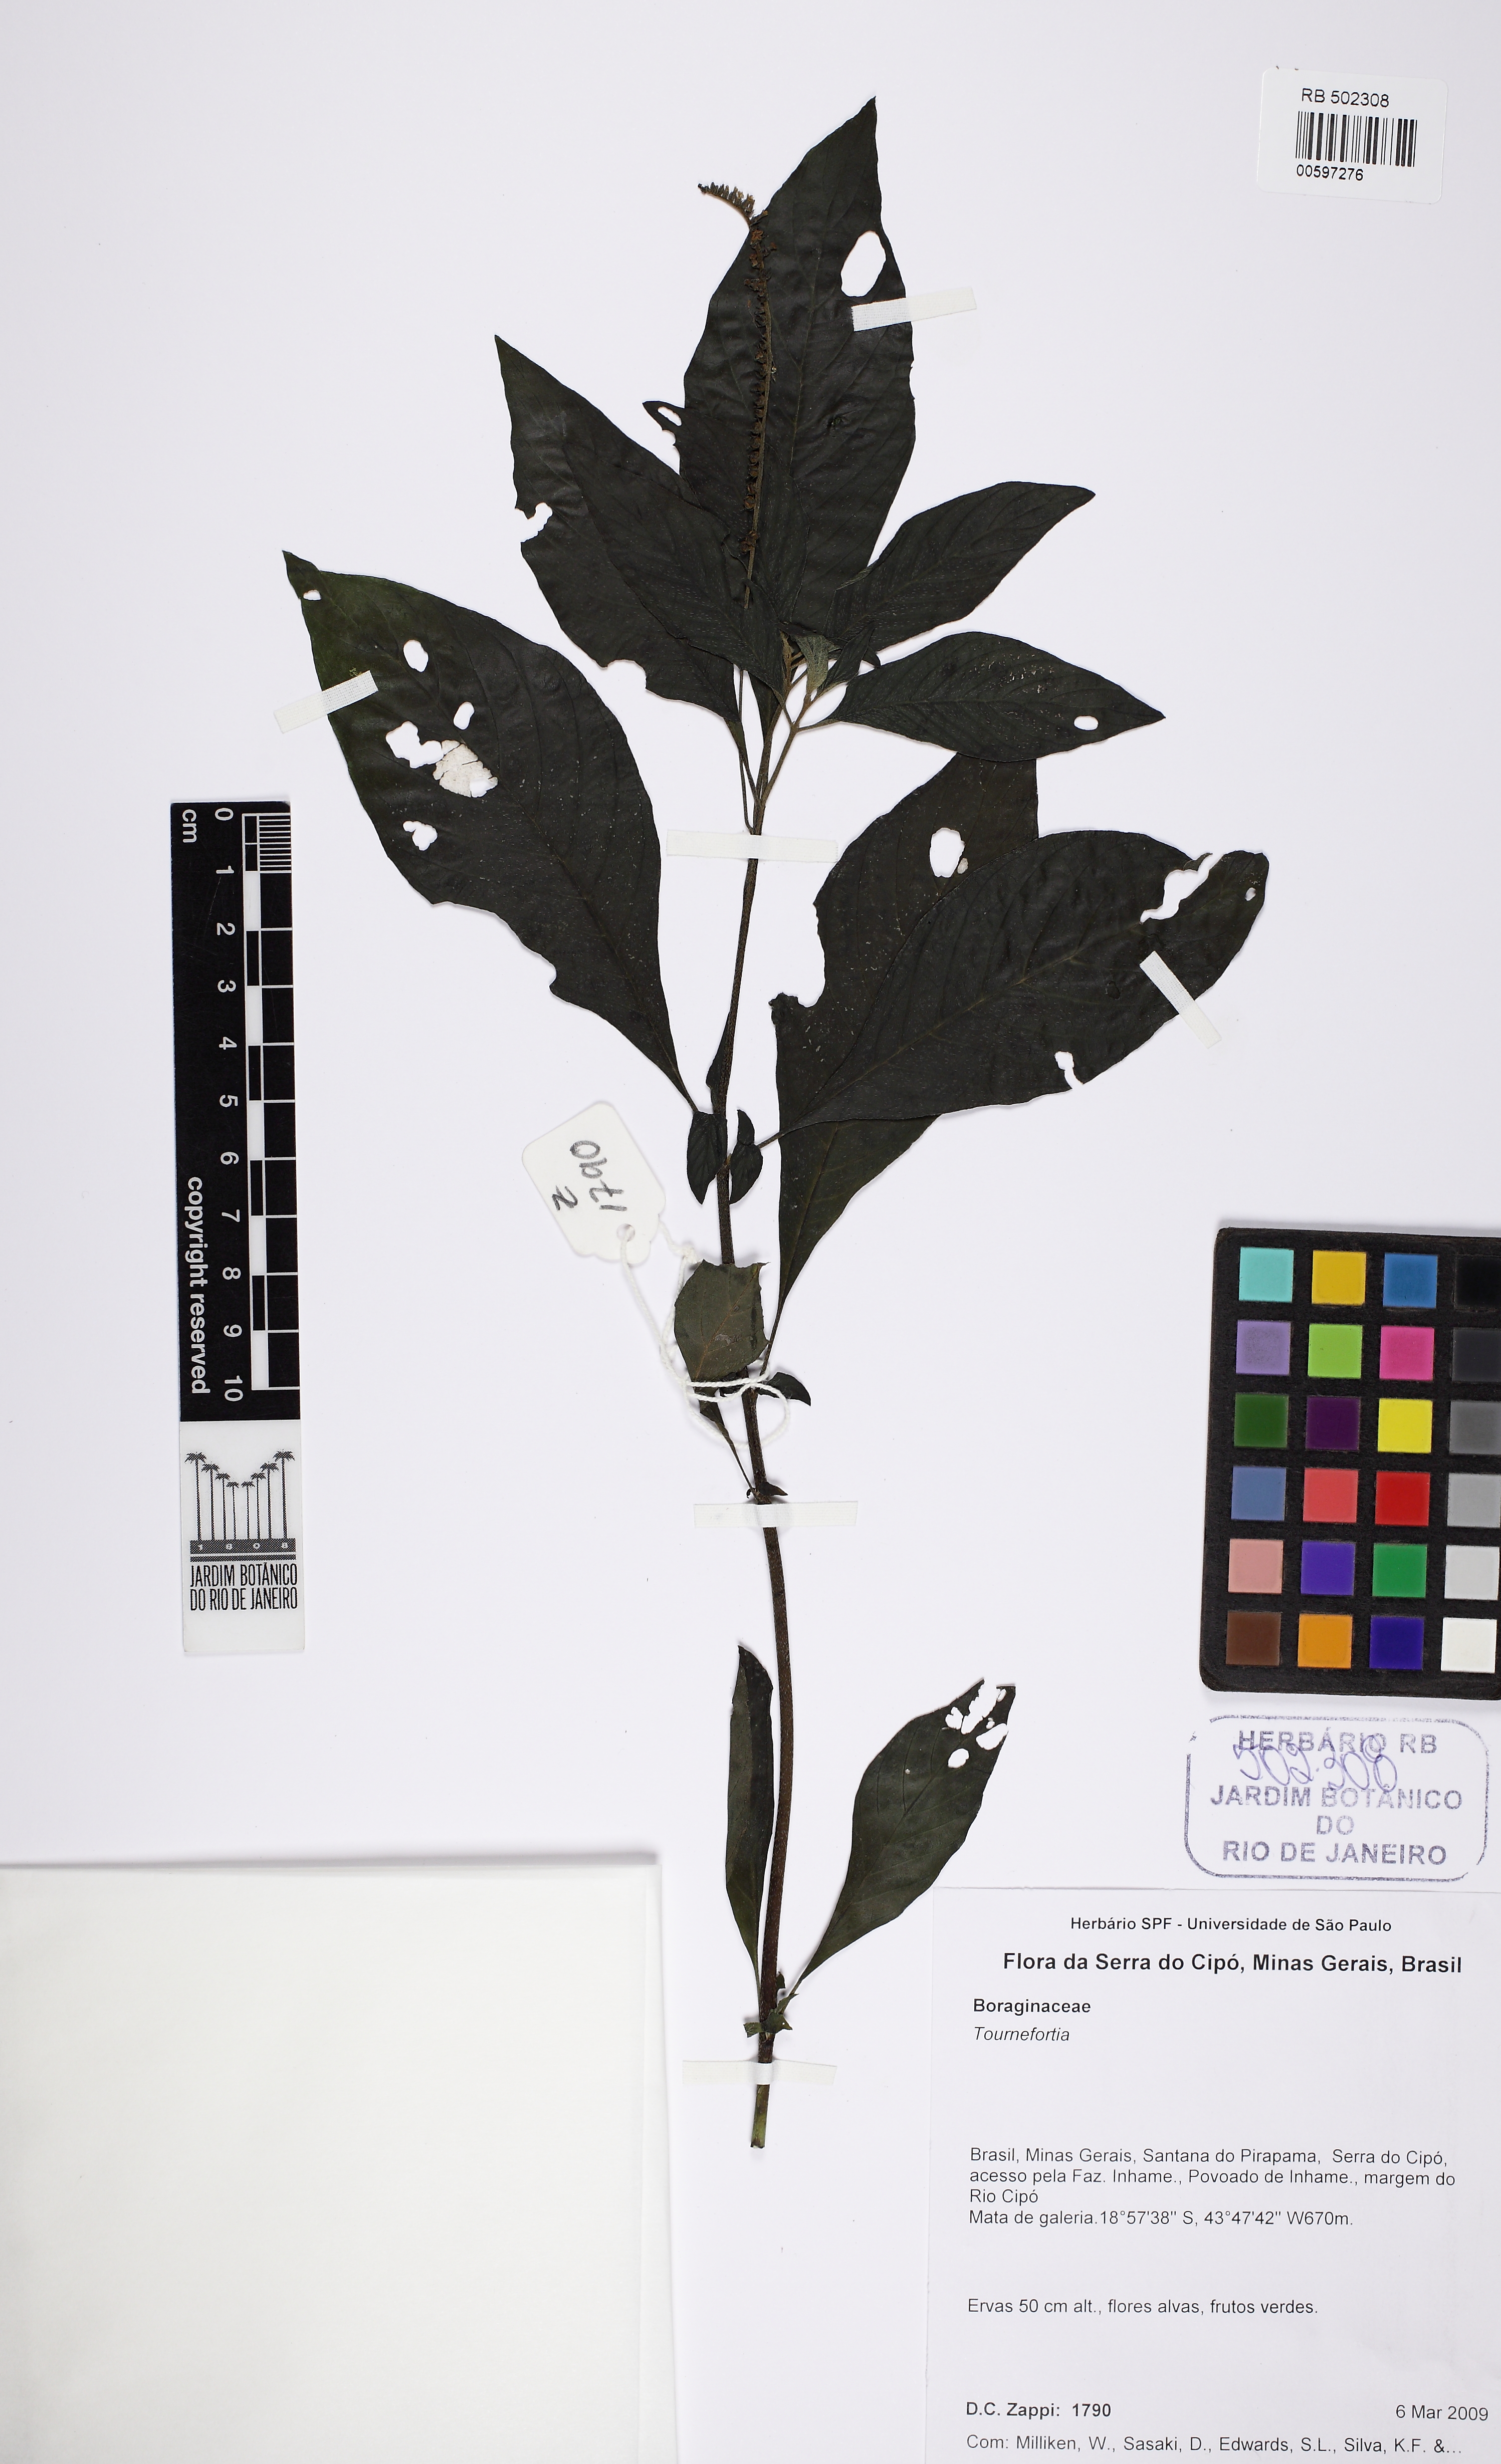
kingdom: Plantae
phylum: Tracheophyta
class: Magnoliopsida
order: Boraginales
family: Heliotropiaceae
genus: Heliotropium
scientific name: Heliotropium transalpinum
